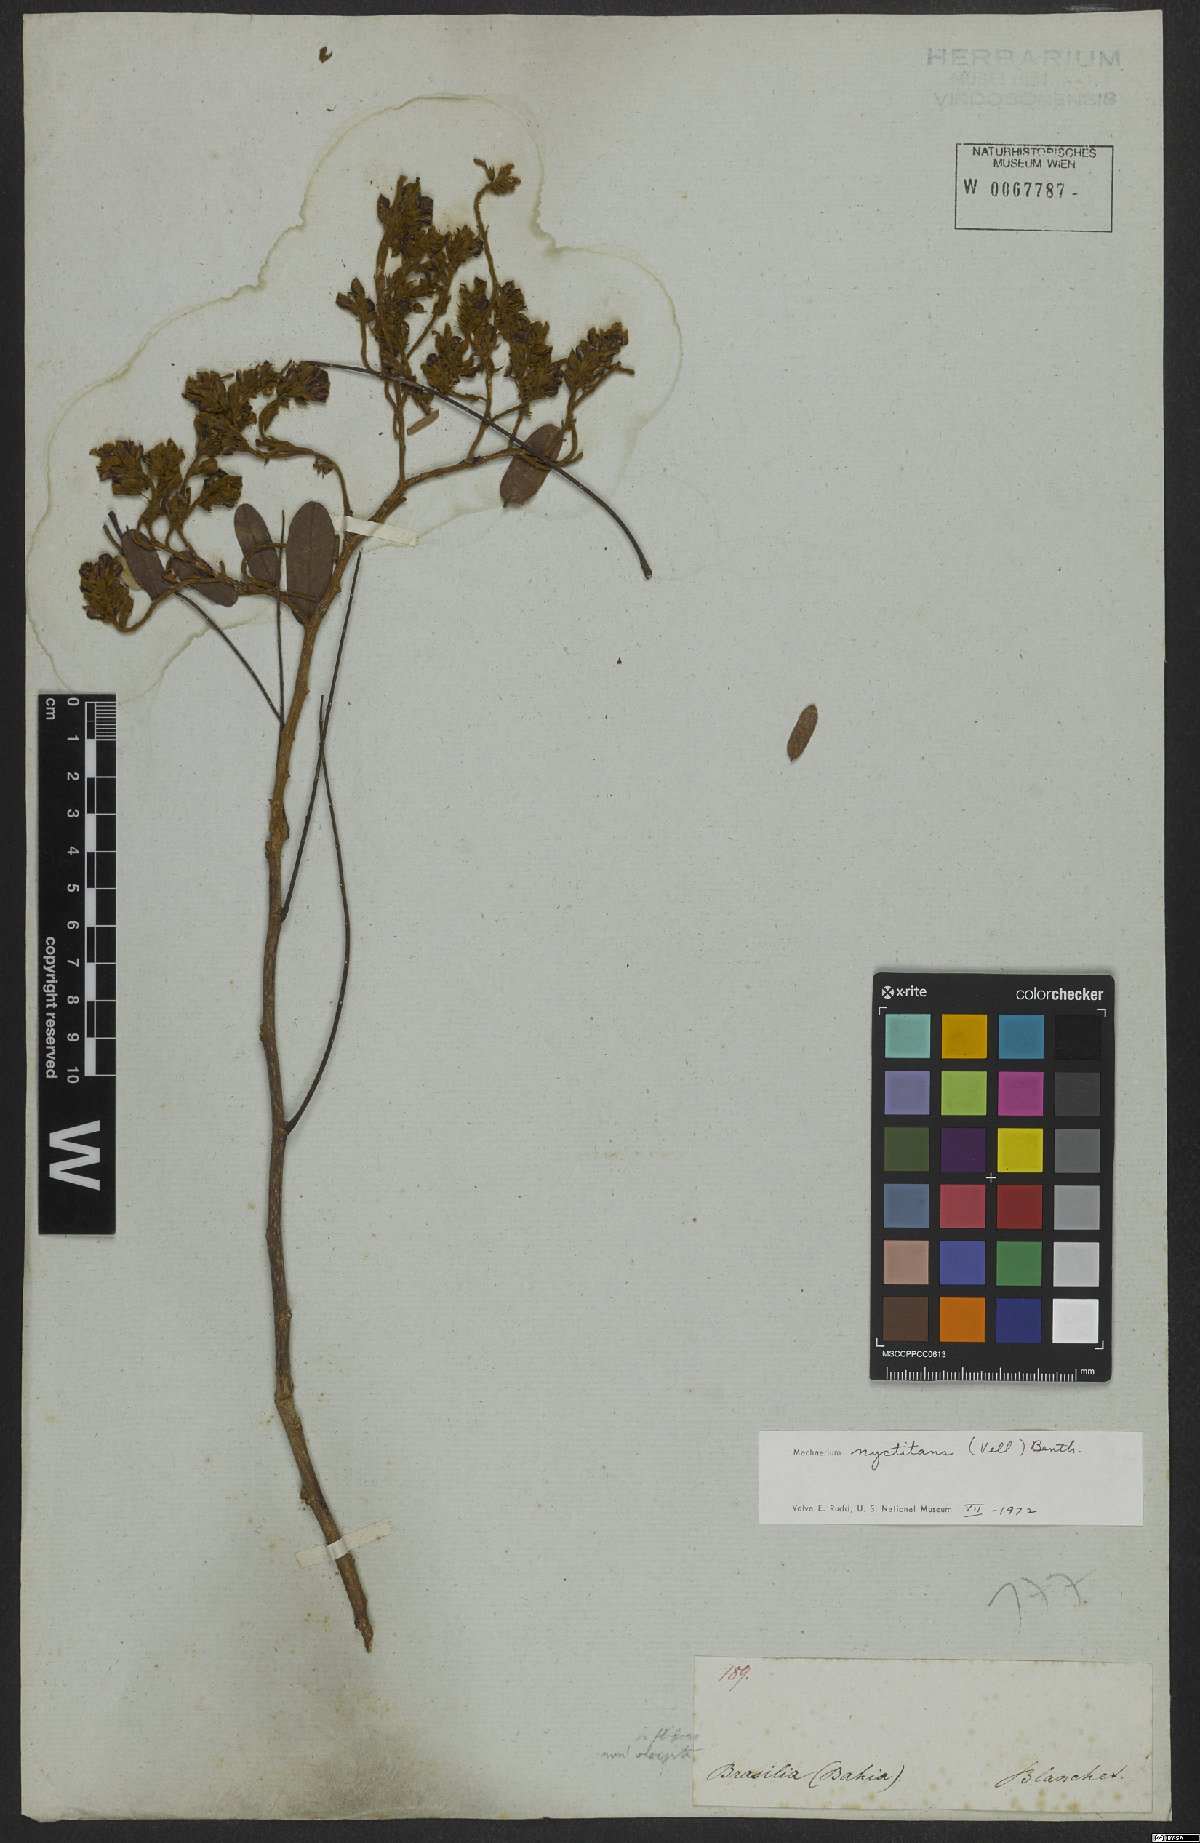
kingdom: Plantae
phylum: Tracheophyta
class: Magnoliopsida
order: Fabales
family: Fabaceae
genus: Machaerium
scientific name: Machaerium nyctitans
